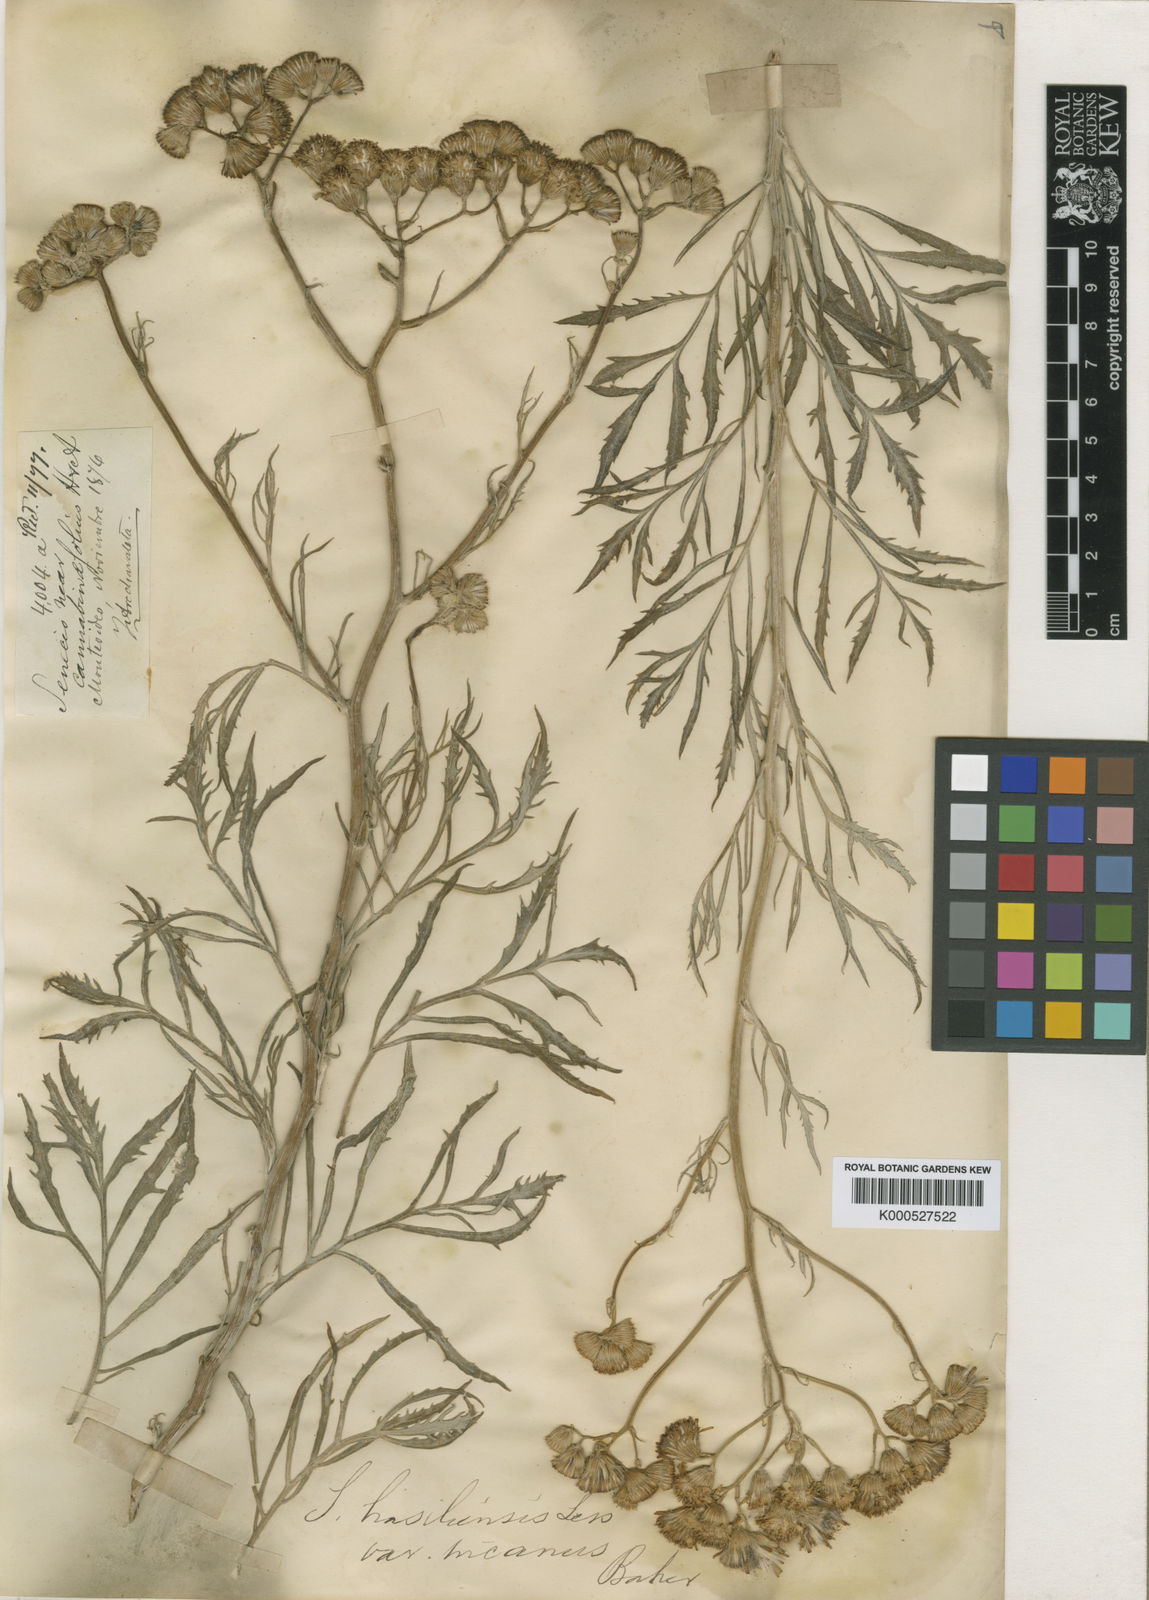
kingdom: Plantae
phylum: Tracheophyta
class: Magnoliopsida
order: Asterales
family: Asteraceae
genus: Senecio
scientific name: Senecio brasiliensis
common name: Hemp-leaf ragwort
